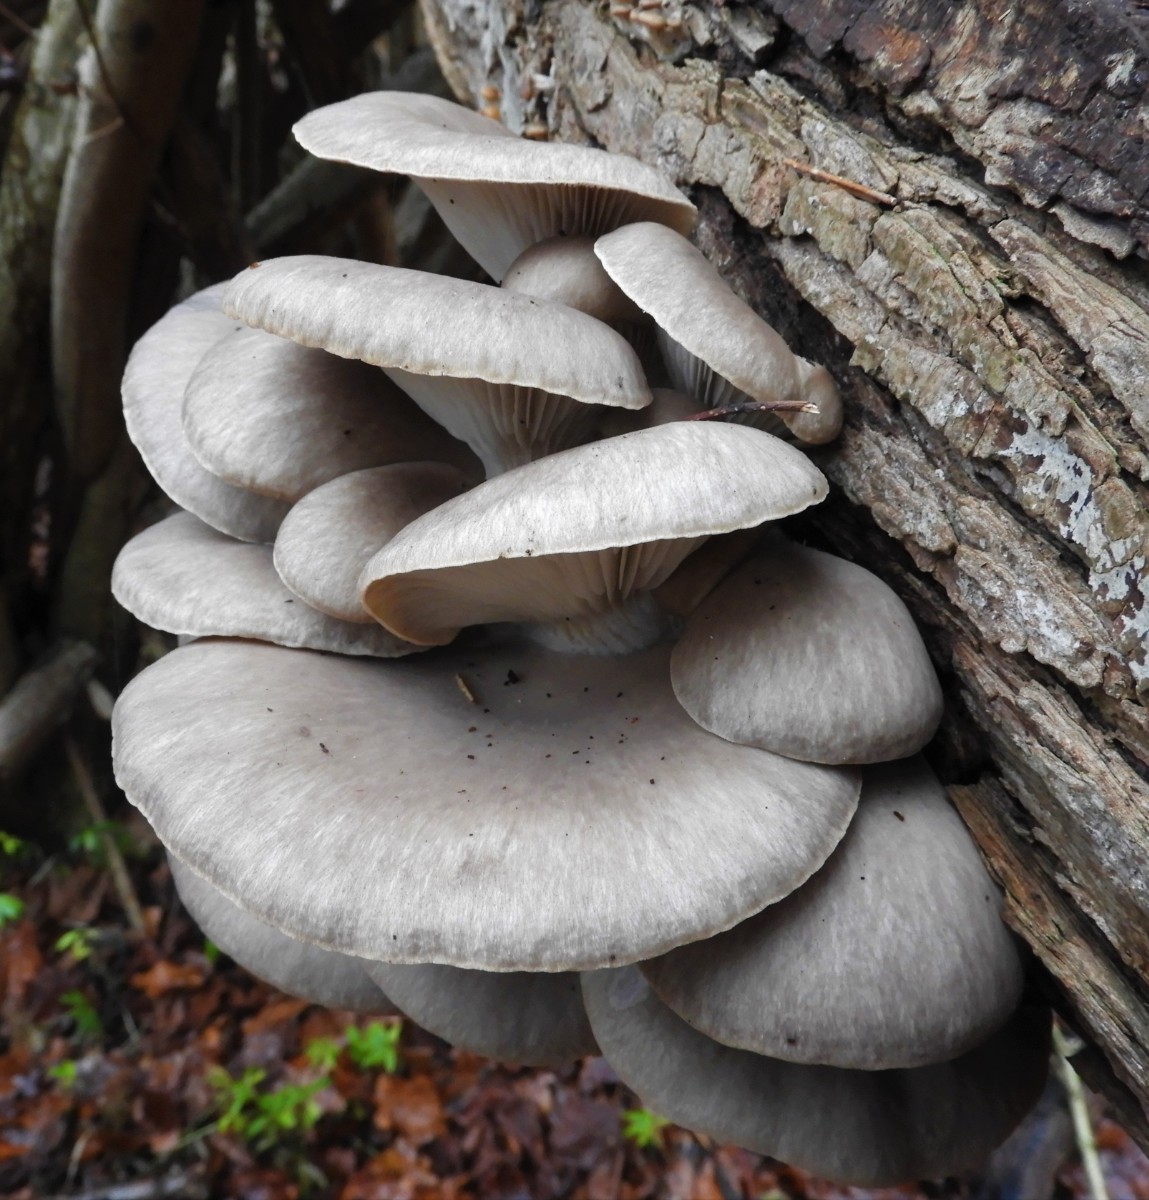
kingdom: Fungi
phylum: Basidiomycota
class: Agaricomycetes
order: Agaricales
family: Pleurotaceae
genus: Pleurotus
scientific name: Pleurotus ostreatus
